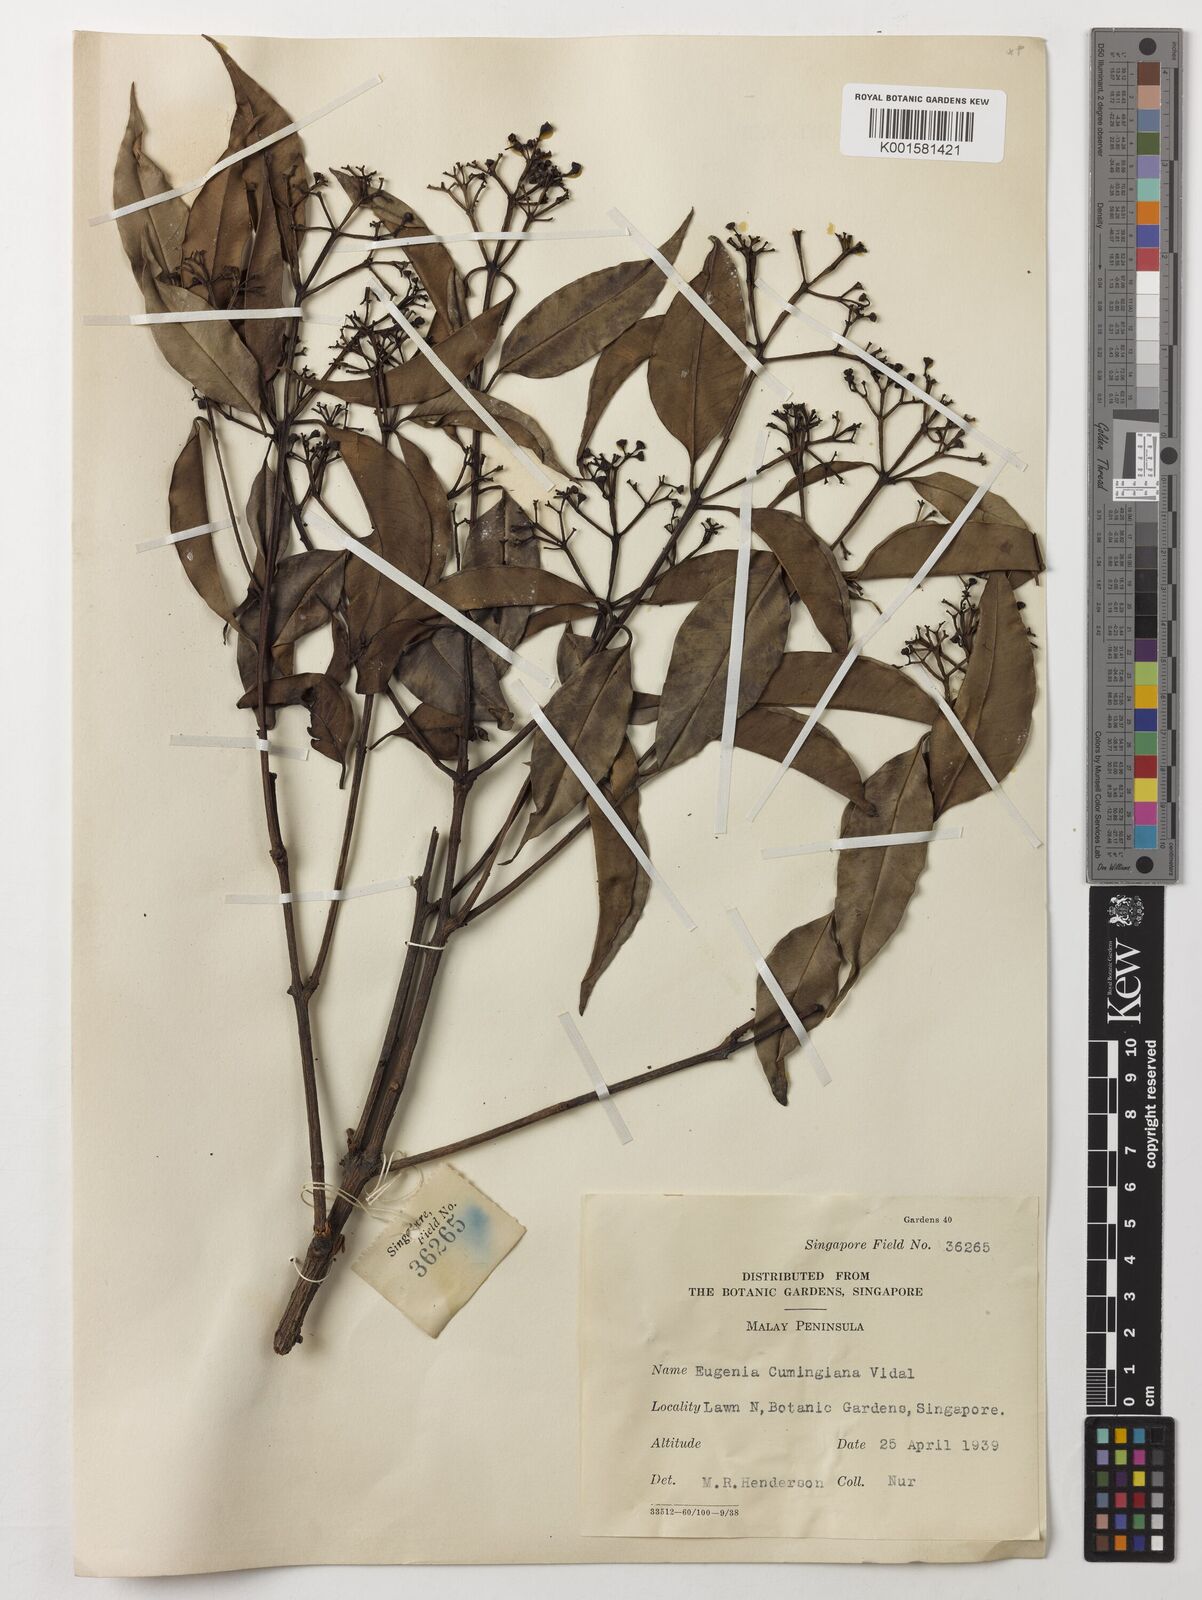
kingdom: Plantae
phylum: Tracheophyta
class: Magnoliopsida
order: Myrtales
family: Myrtaceae
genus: Syzygium
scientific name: Syzygium acuminatissimum
